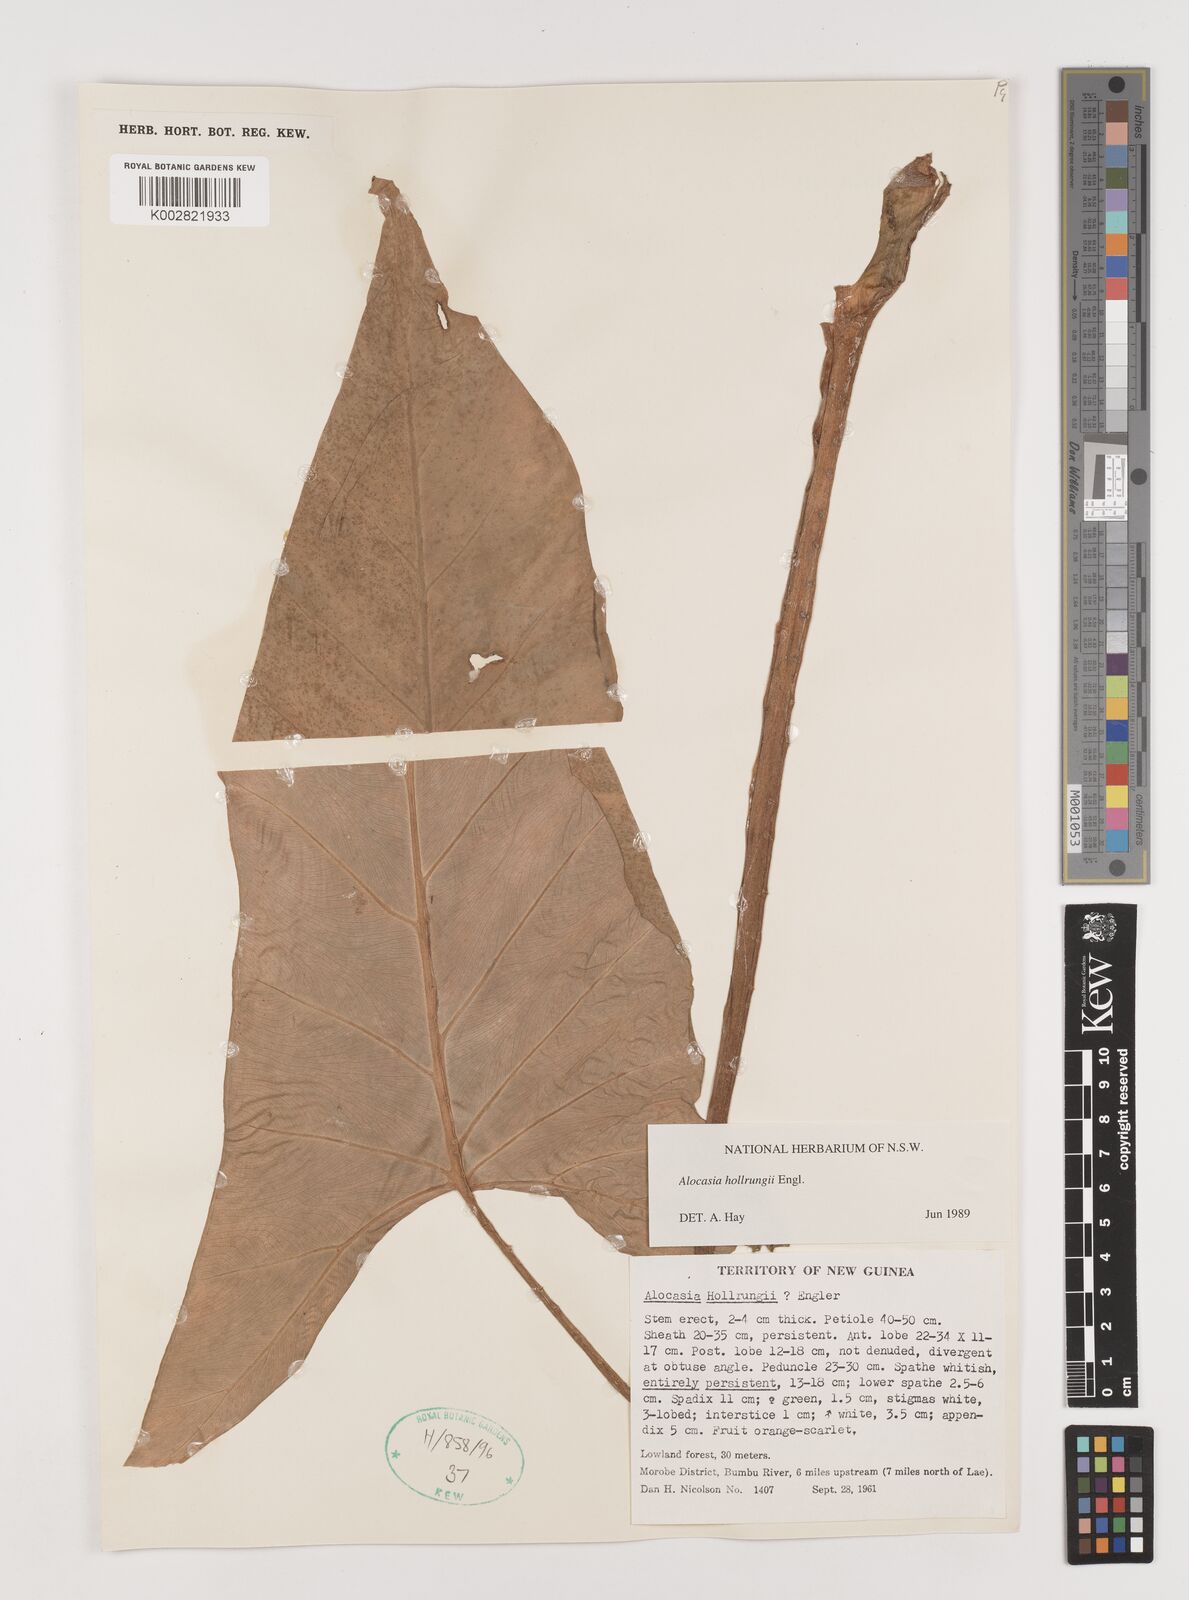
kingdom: Plantae
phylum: Tracheophyta
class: Liliopsida
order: Alismatales
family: Araceae
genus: Alocasia
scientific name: Alocasia hollrungii
